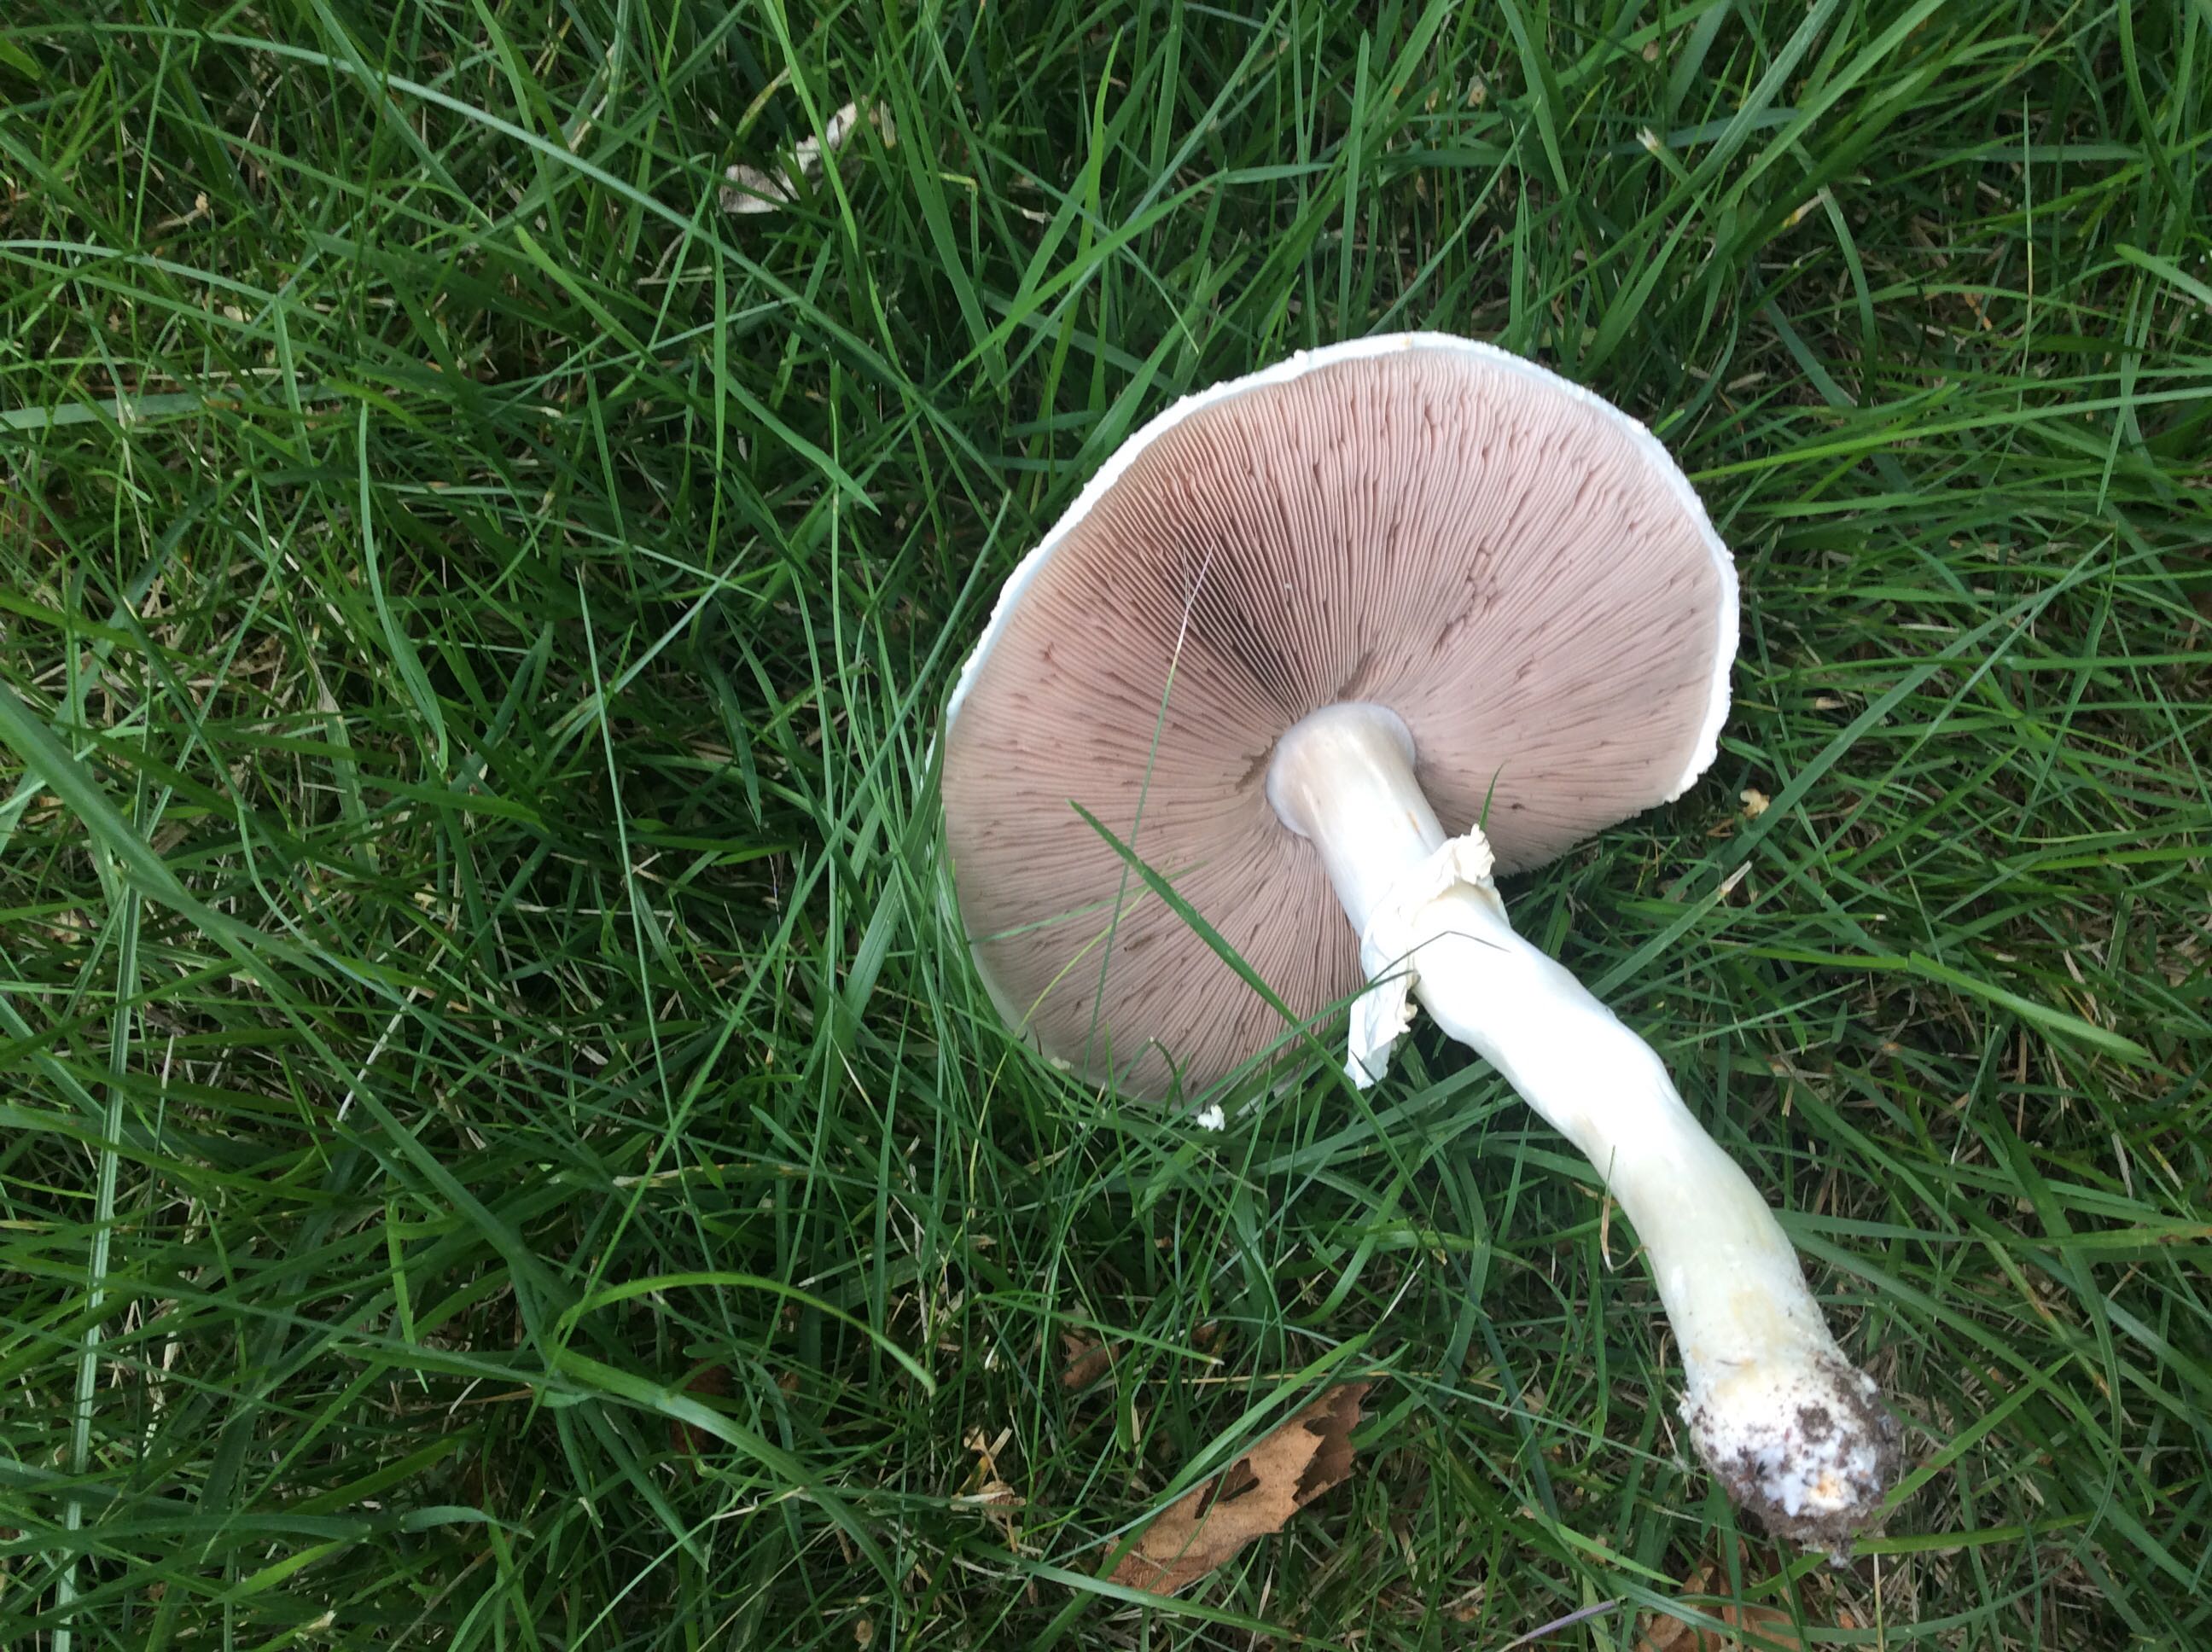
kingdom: Fungi
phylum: Basidiomycota
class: Agaricomycetes
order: Agaricales
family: Agaricaceae
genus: Agaricus
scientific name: Agaricus
